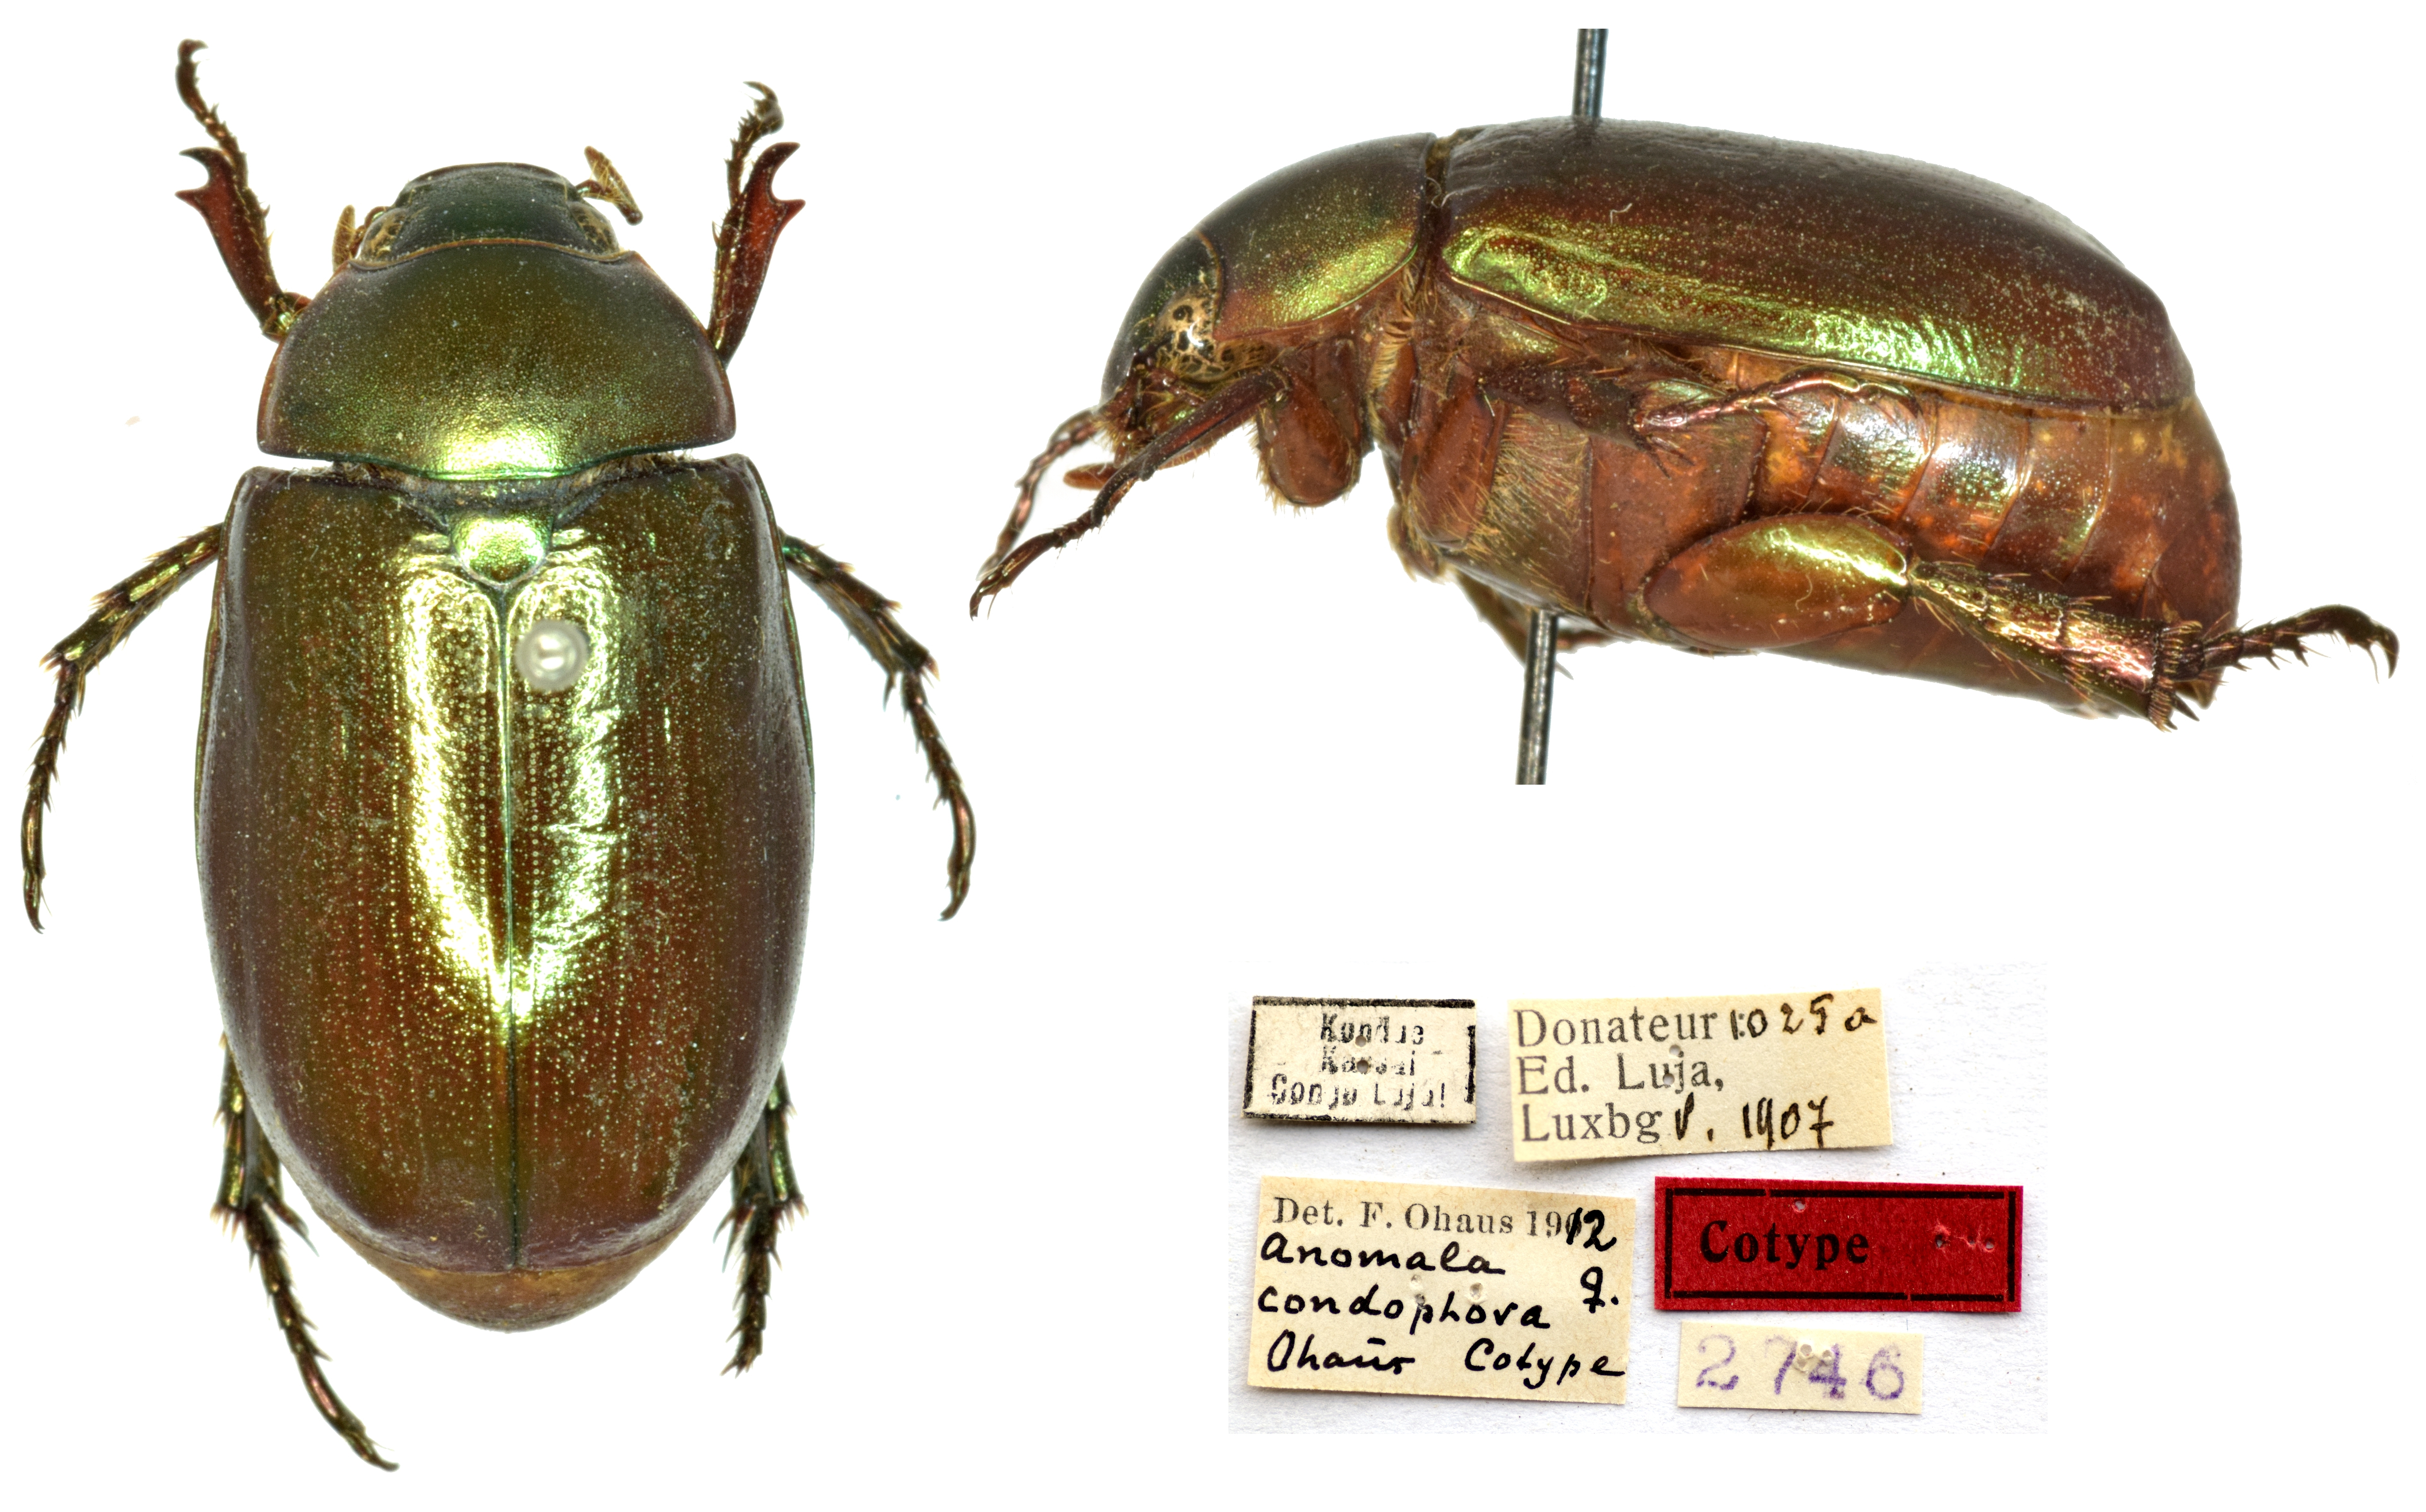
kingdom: Animalia
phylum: Arthropoda
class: Insecta
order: Coleoptera
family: Scarabaeidae
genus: Mimela
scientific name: Mimela condophora
